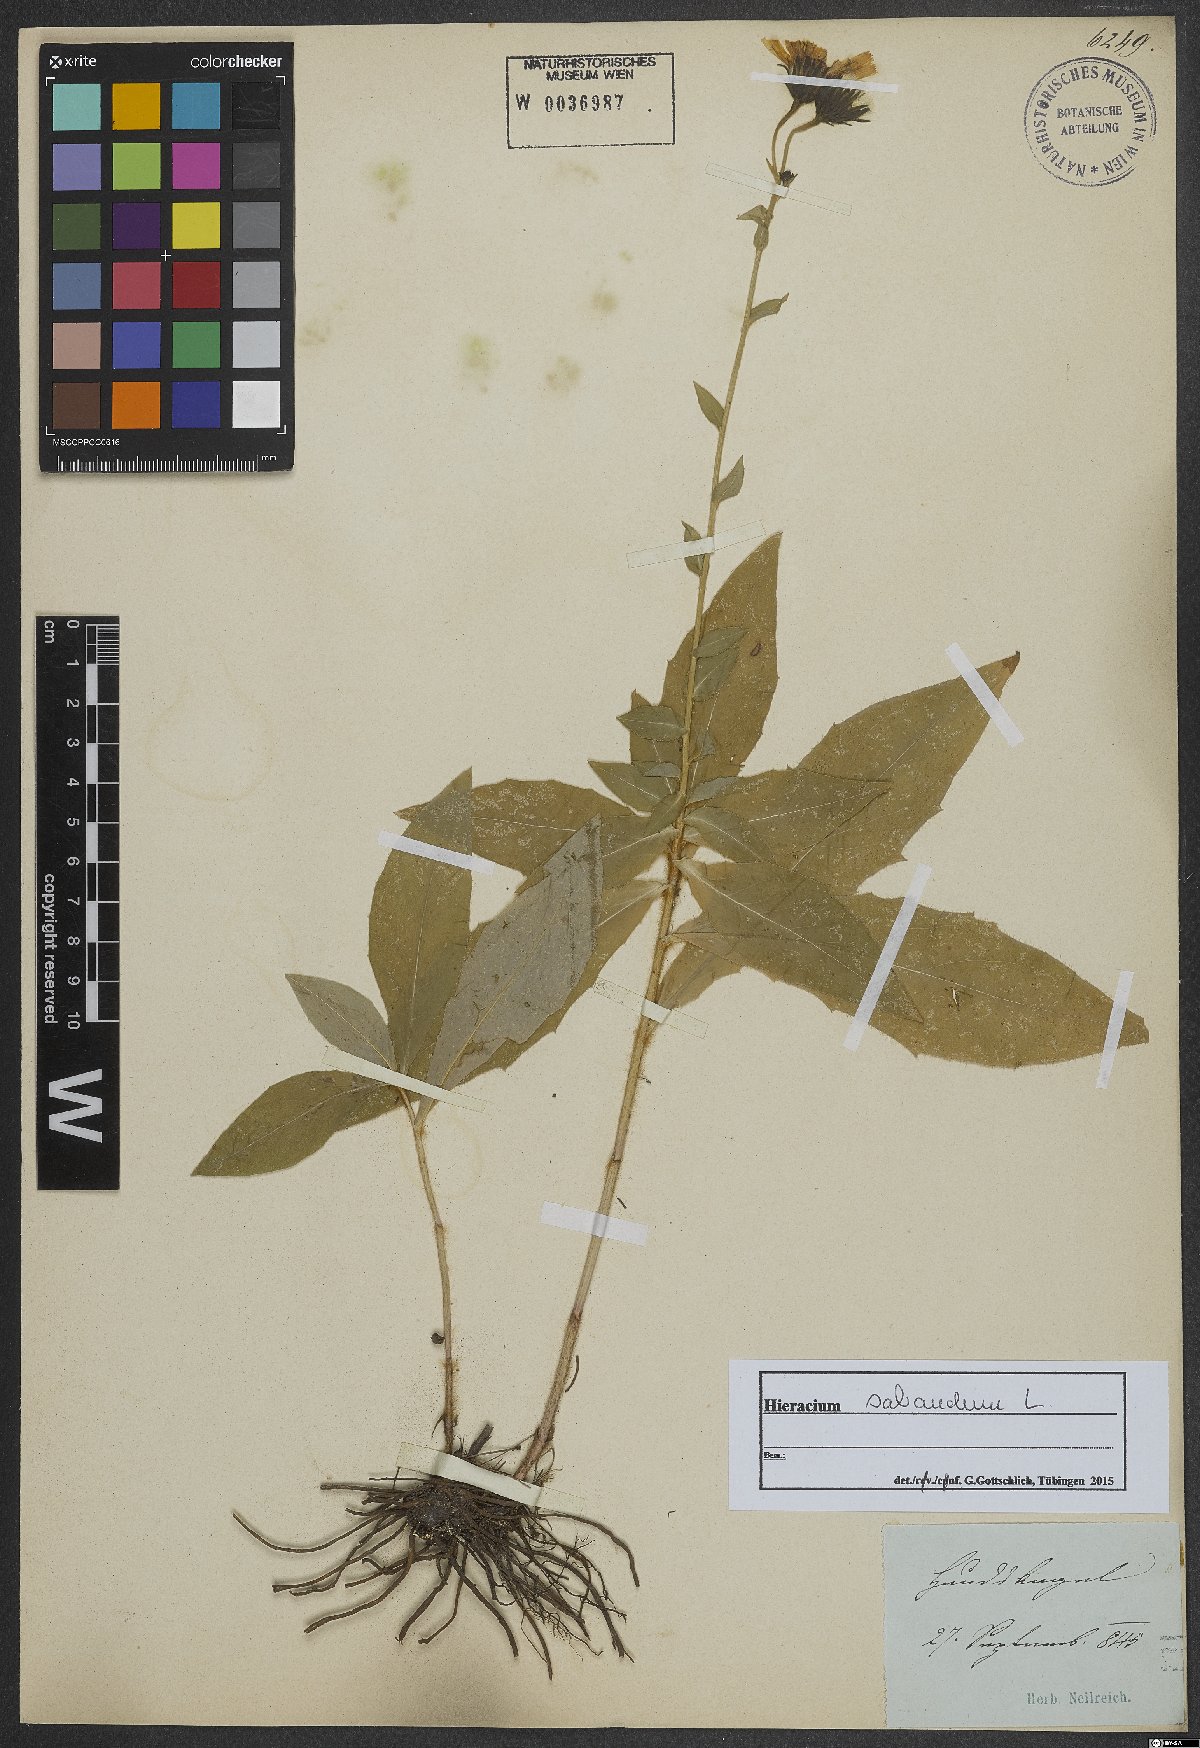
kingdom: Plantae
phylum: Tracheophyta
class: Magnoliopsida
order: Asterales
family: Asteraceae
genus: Hieracium
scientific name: Hieracium sabaudum
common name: New england hawkweed
